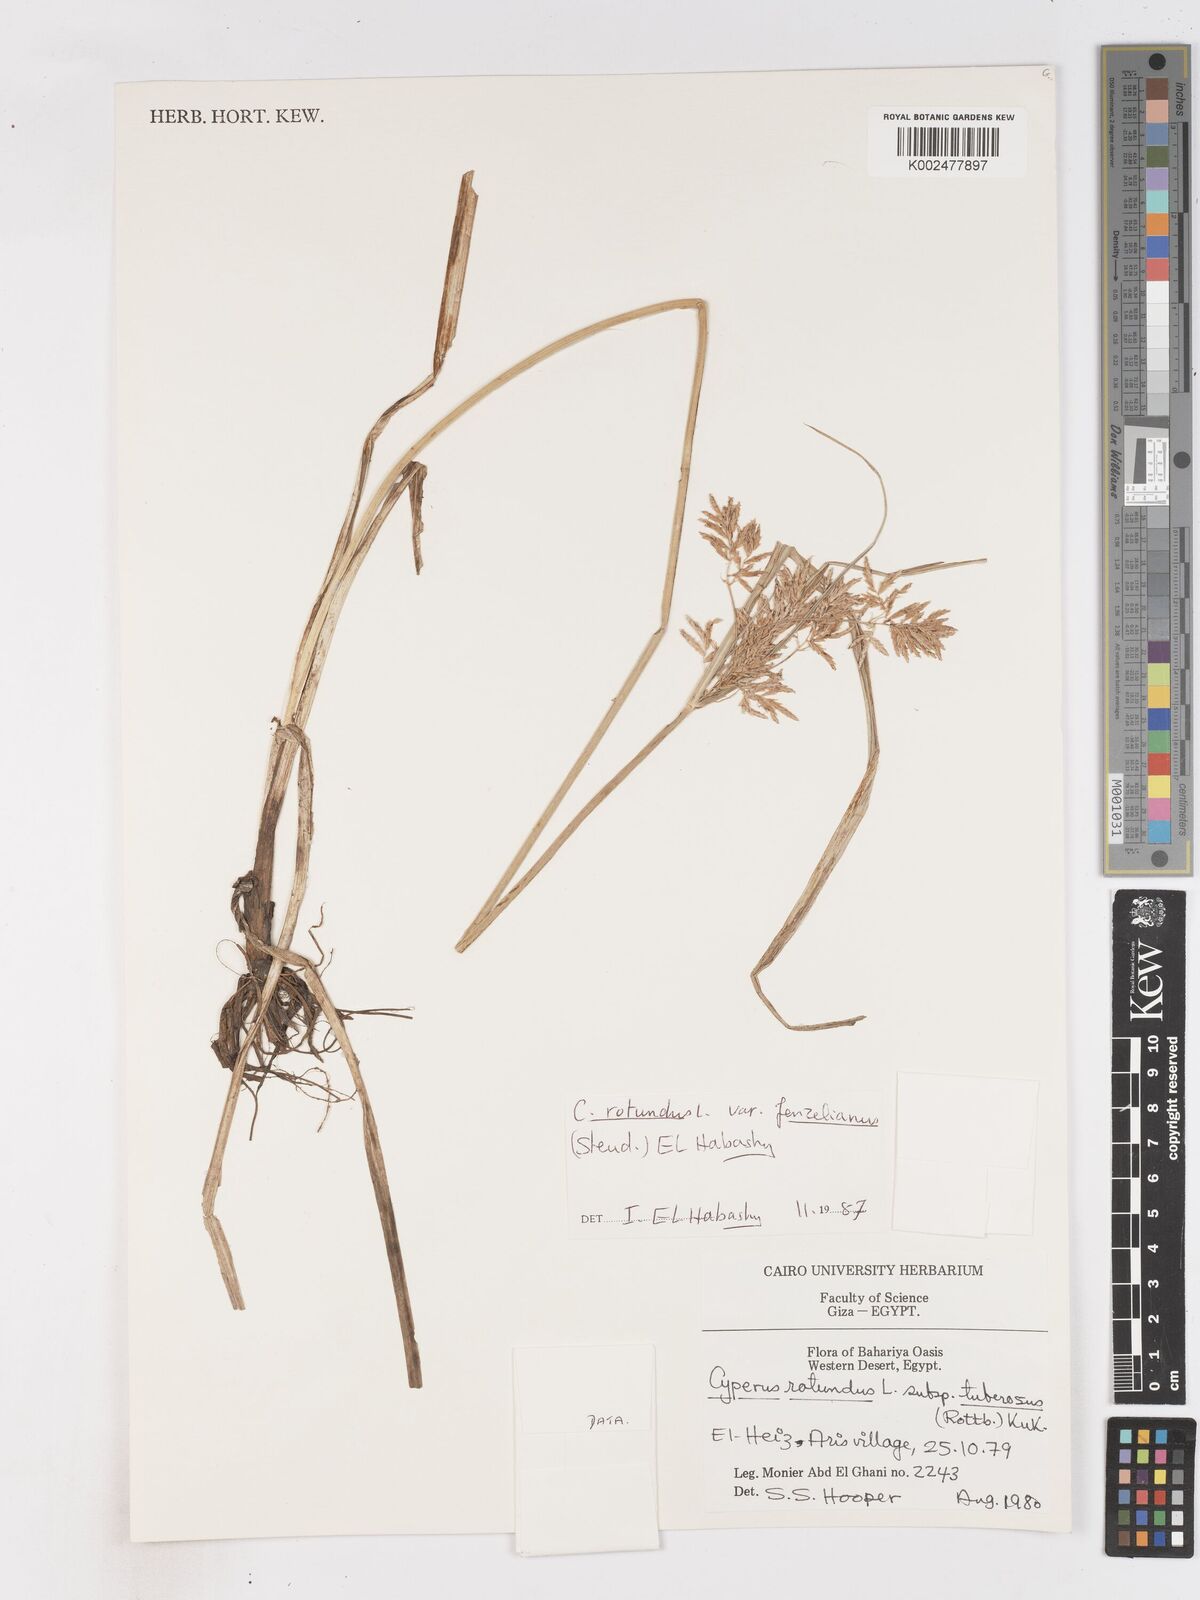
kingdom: Plantae
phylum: Tracheophyta
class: Liliopsida
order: Poales
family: Cyperaceae
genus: Cyperus
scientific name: Cyperus longus
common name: Galingale
